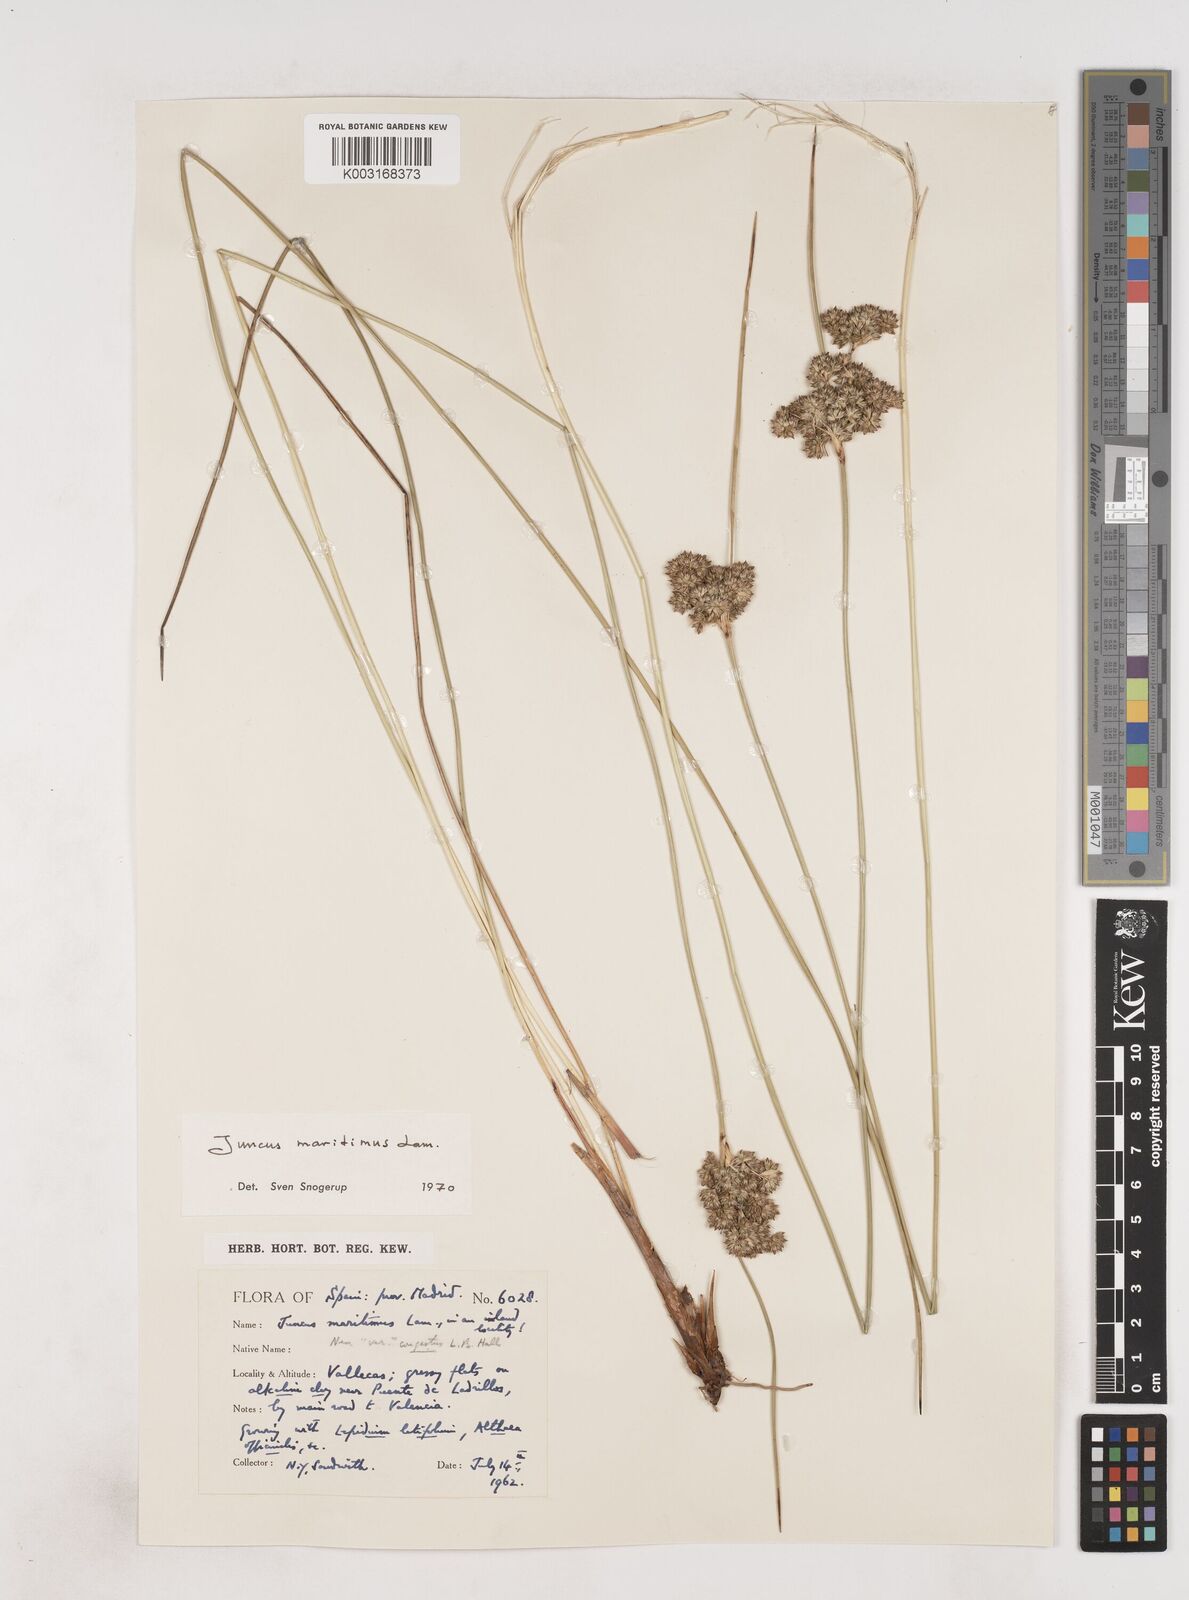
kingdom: Plantae
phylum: Tracheophyta
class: Liliopsida
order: Poales
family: Juncaceae
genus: Luzula
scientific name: Luzula sylvatica
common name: Great wood-rush
